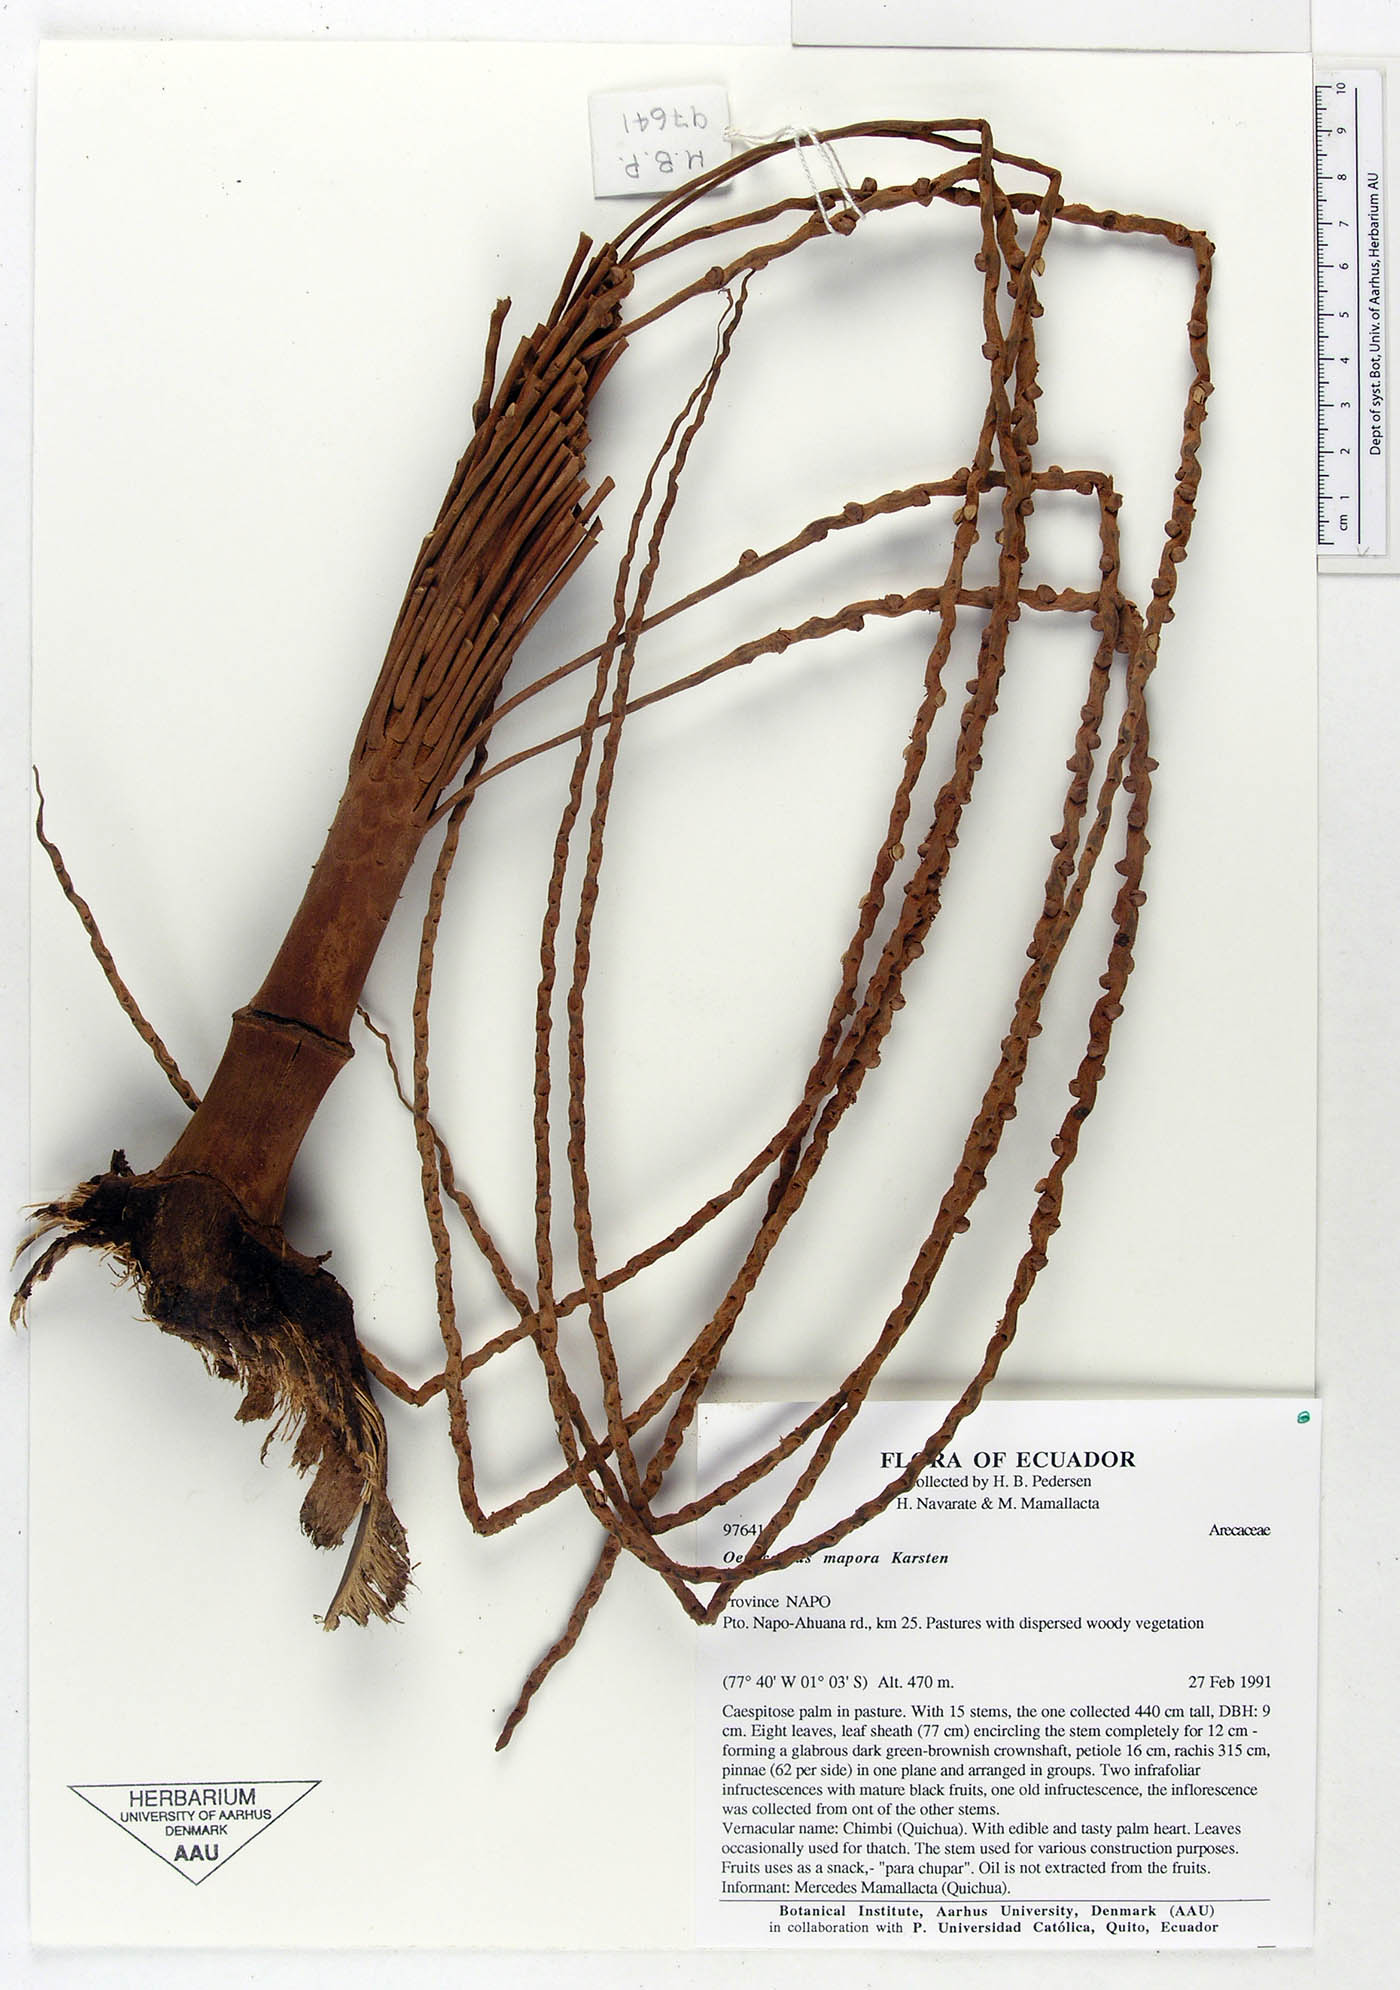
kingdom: Plantae
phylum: Tracheophyta
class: Liliopsida
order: Arecales
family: Arecaceae
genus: Oenocarpus
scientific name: Oenocarpus mapora
